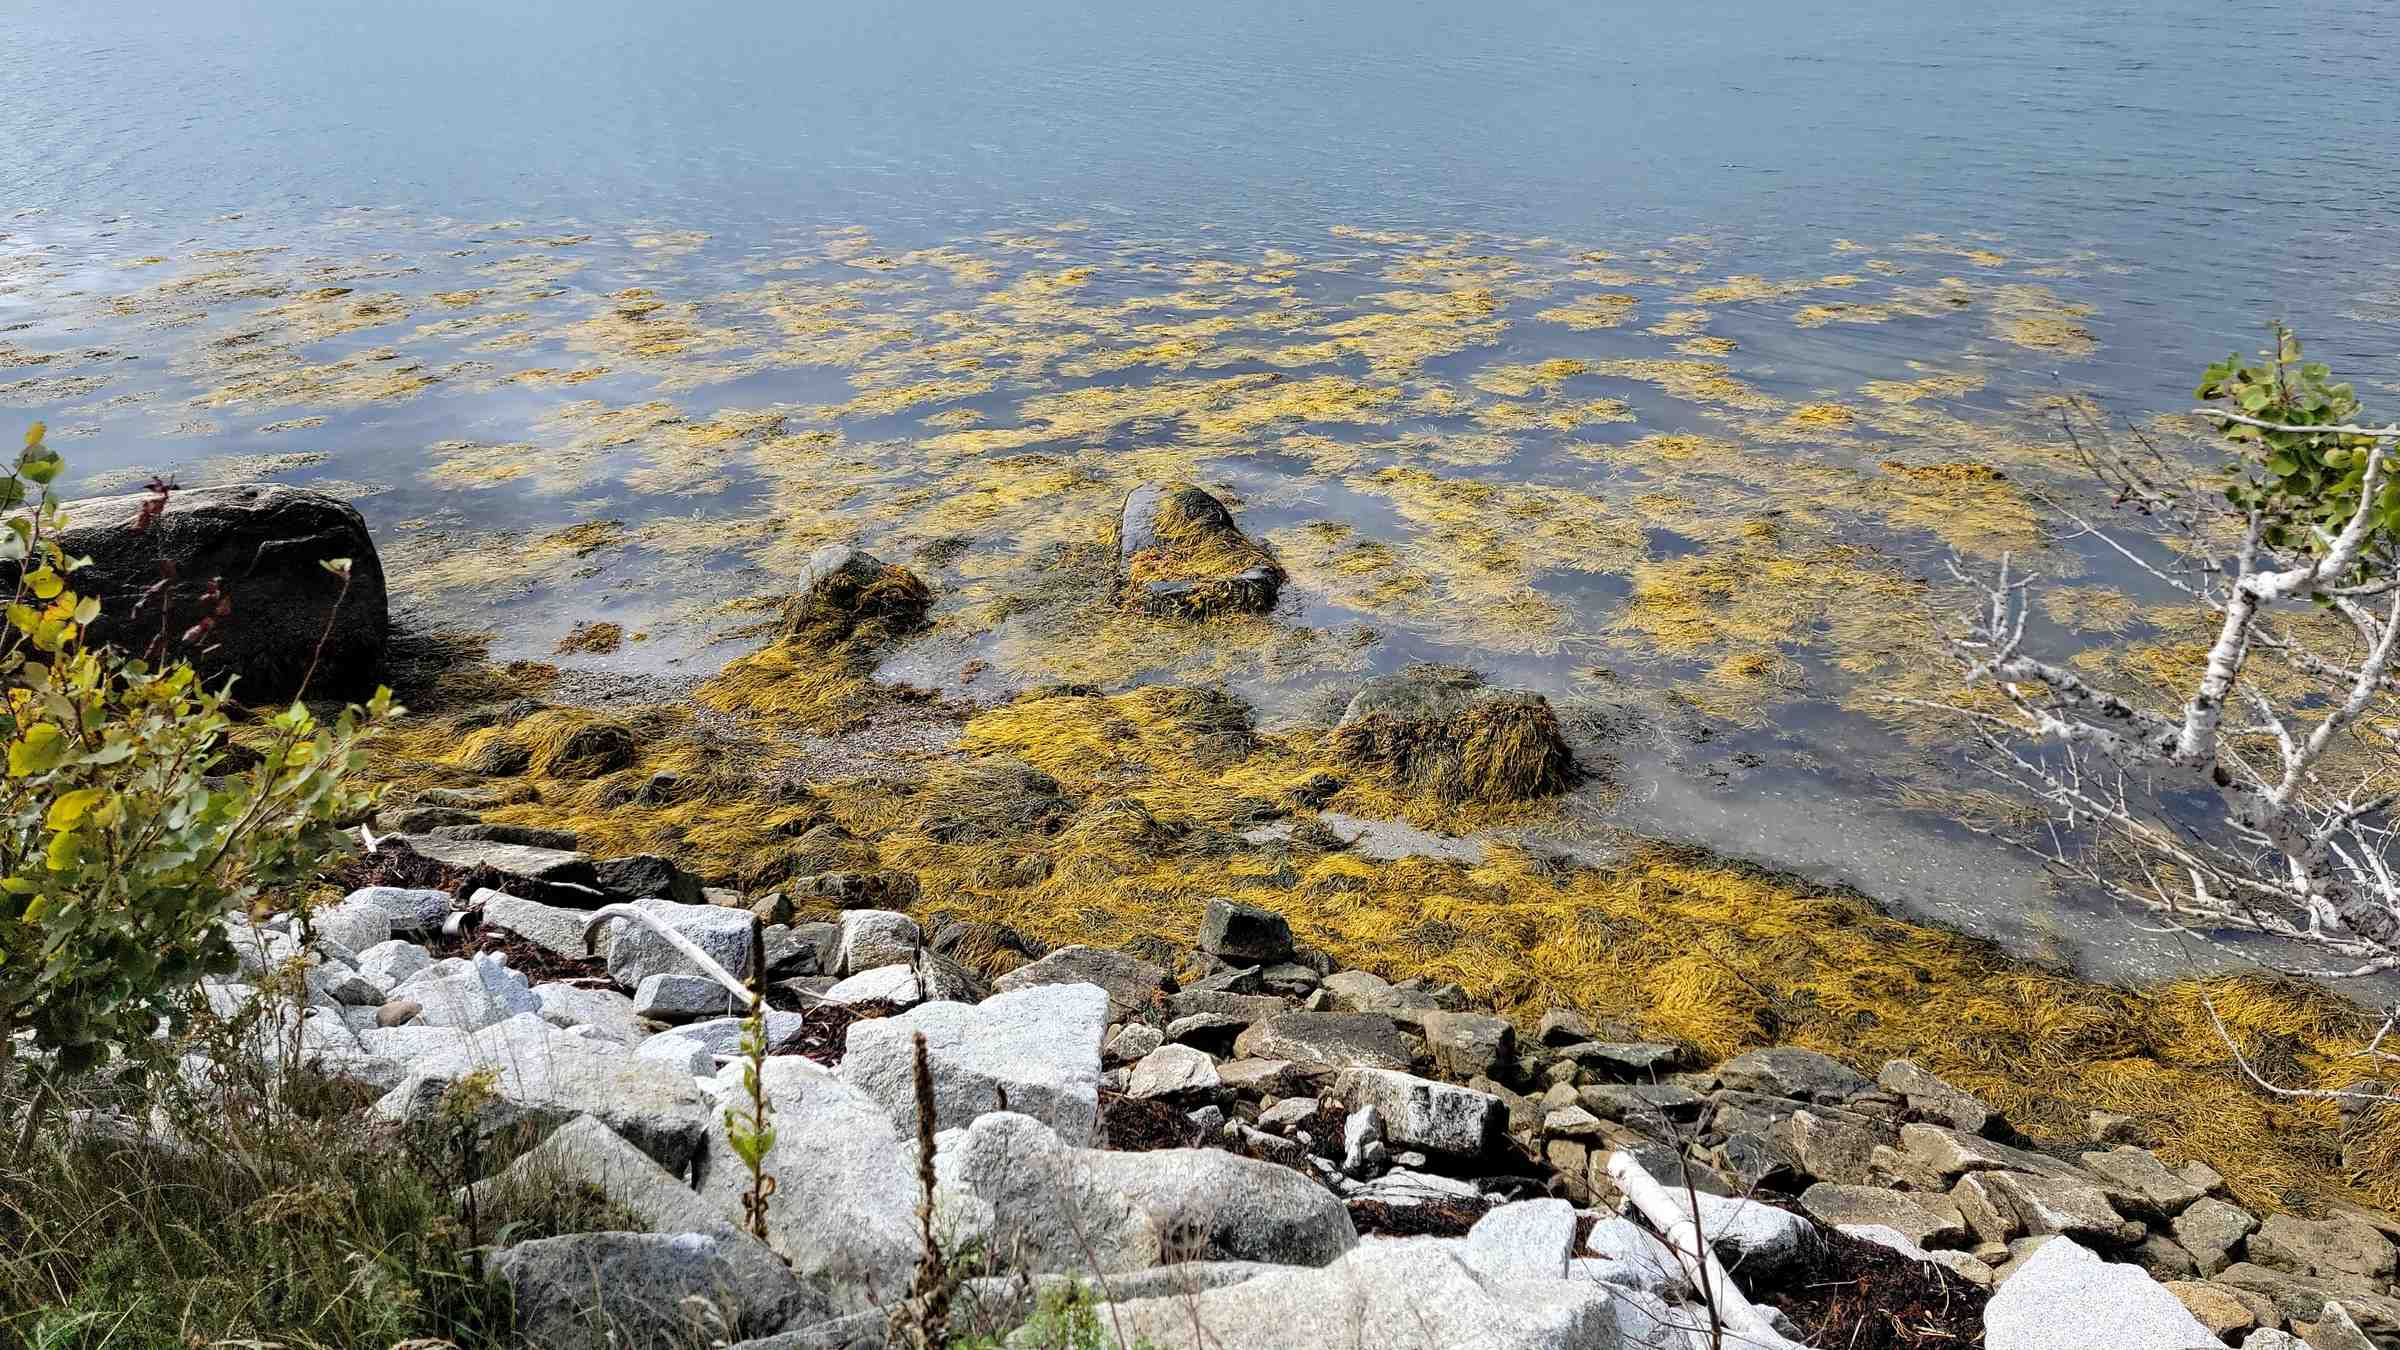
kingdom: Chromista
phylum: Ochrophyta
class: Phaeophyceae
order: Fucales
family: Fucaceae
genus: Ascophyllum
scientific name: Ascophyllum nodosum
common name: Rockweed
